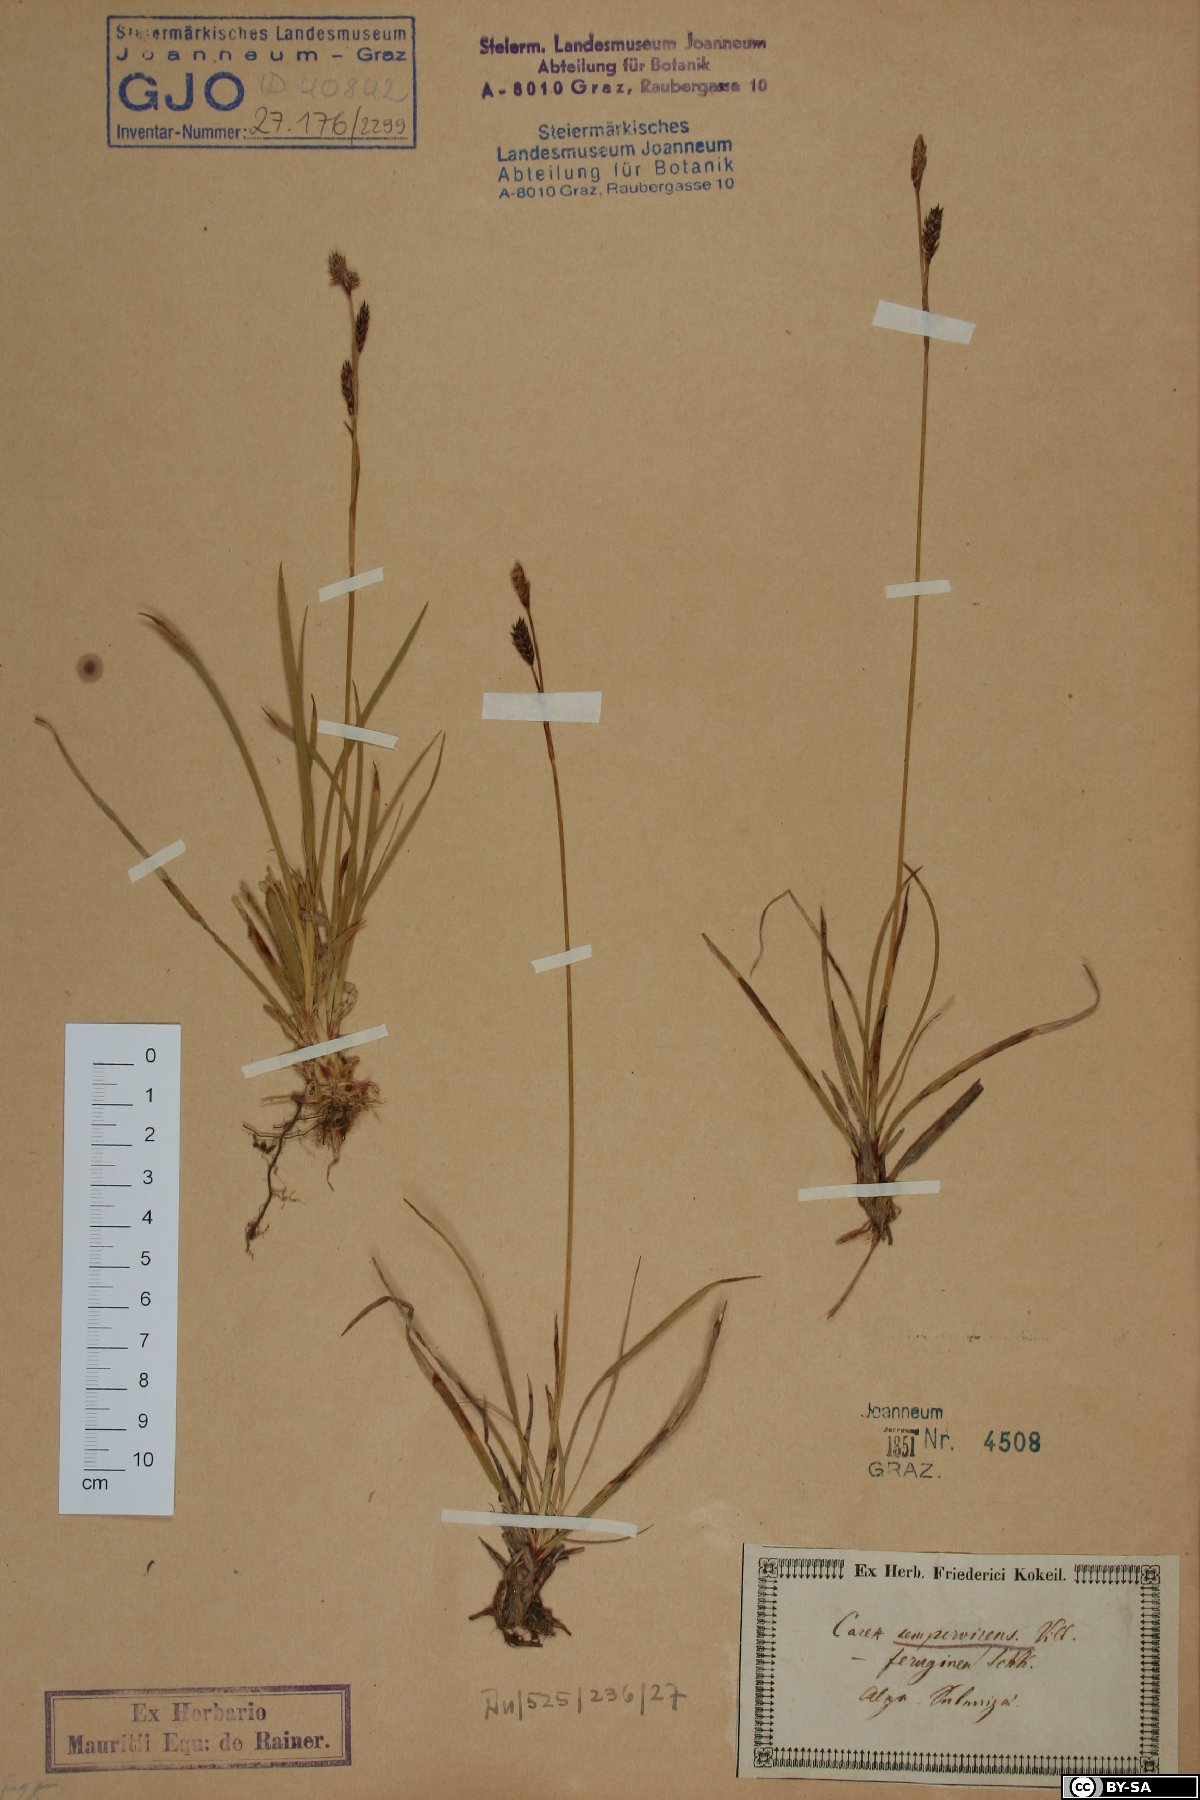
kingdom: Plantae
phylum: Tracheophyta
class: Liliopsida
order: Poales
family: Cyperaceae
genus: Carex
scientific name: Carex sempervirens
